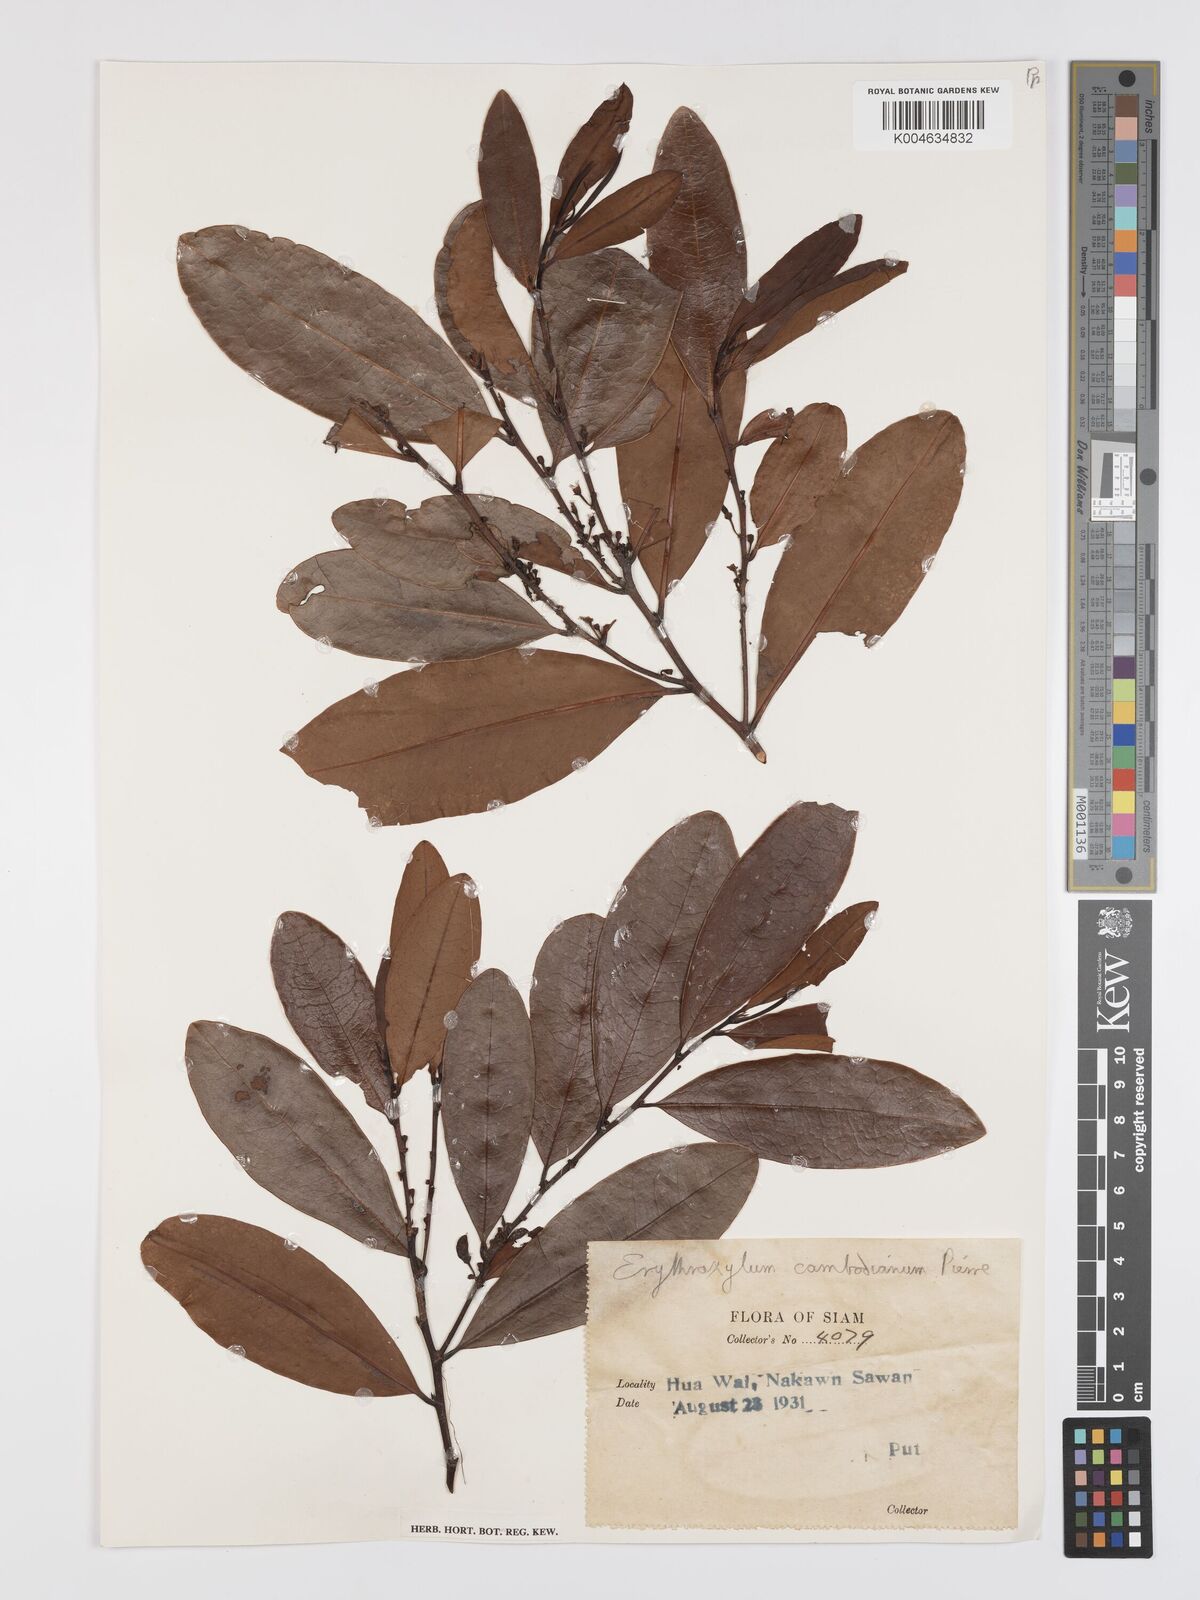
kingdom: Plantae
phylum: Tracheophyta
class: Magnoliopsida
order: Malpighiales
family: Erythroxylaceae
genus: Erythroxylum
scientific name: Erythroxylum cambodianum
